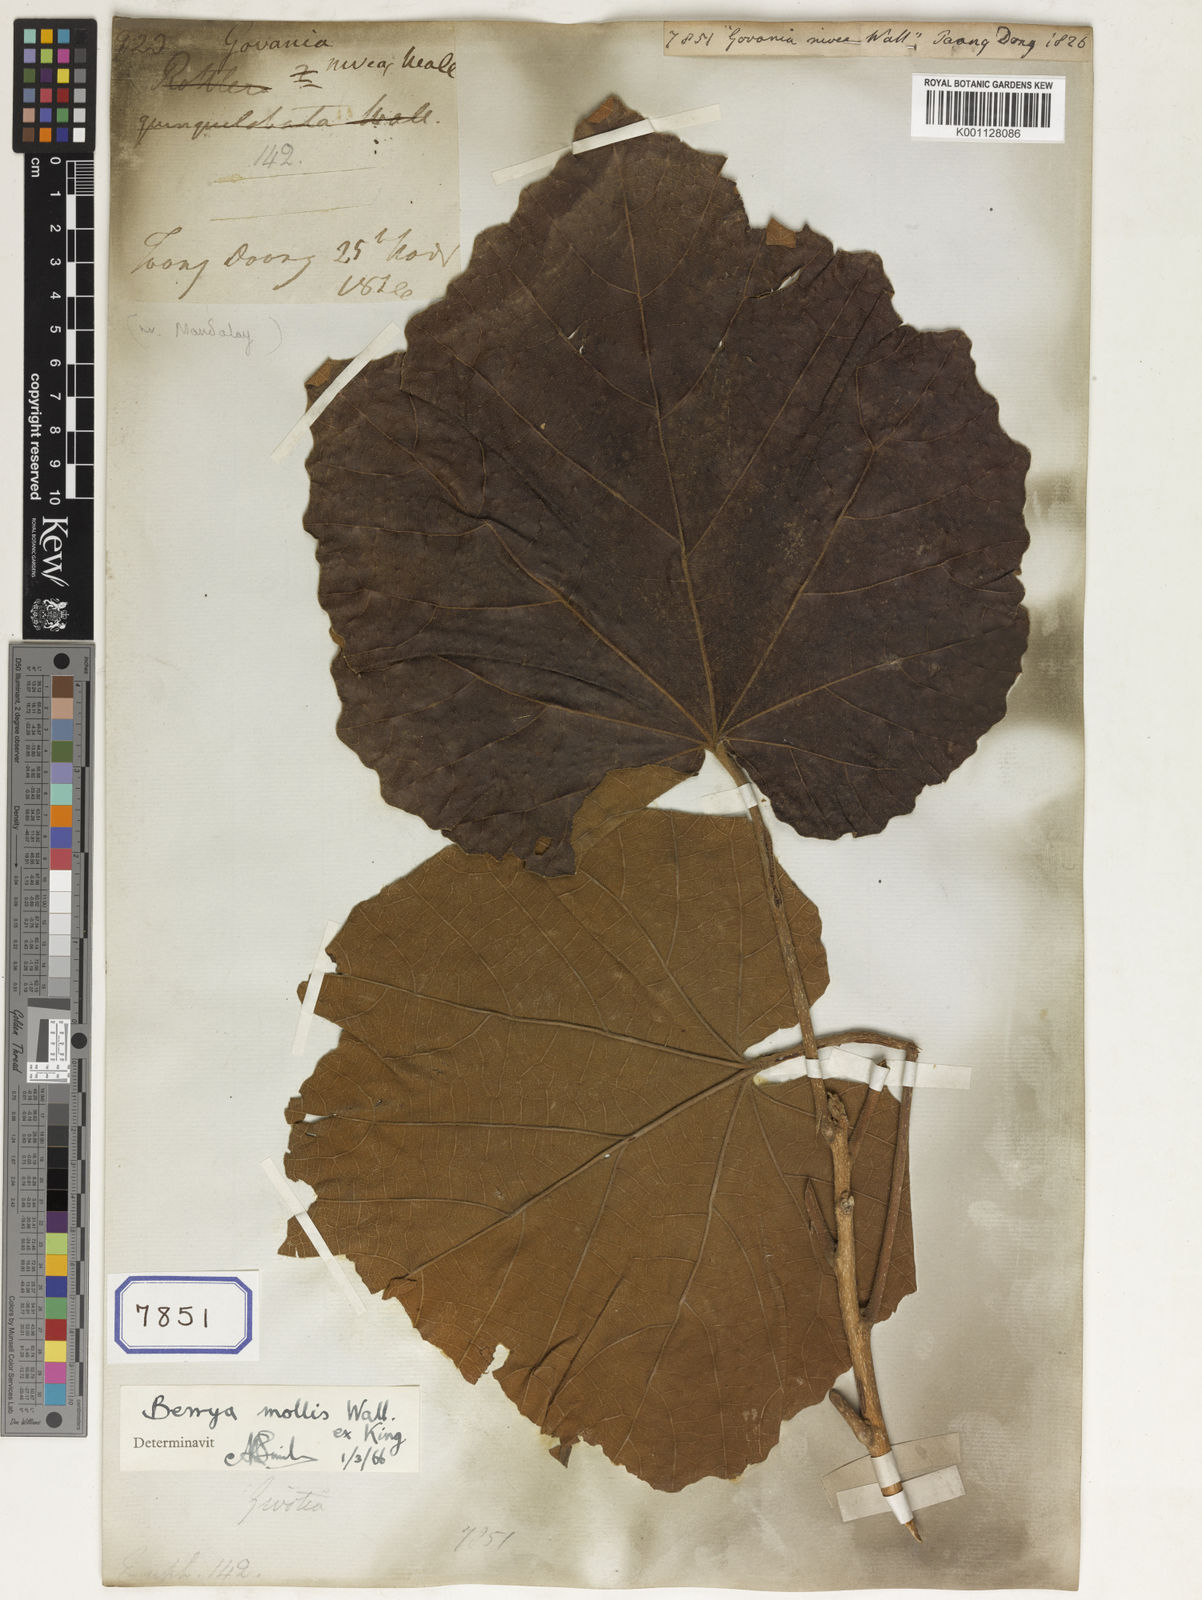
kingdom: Plantae
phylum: Tracheophyta
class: Magnoliopsida
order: Malpighiales
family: Euphorbiaceae
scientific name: Euphorbiaceae
